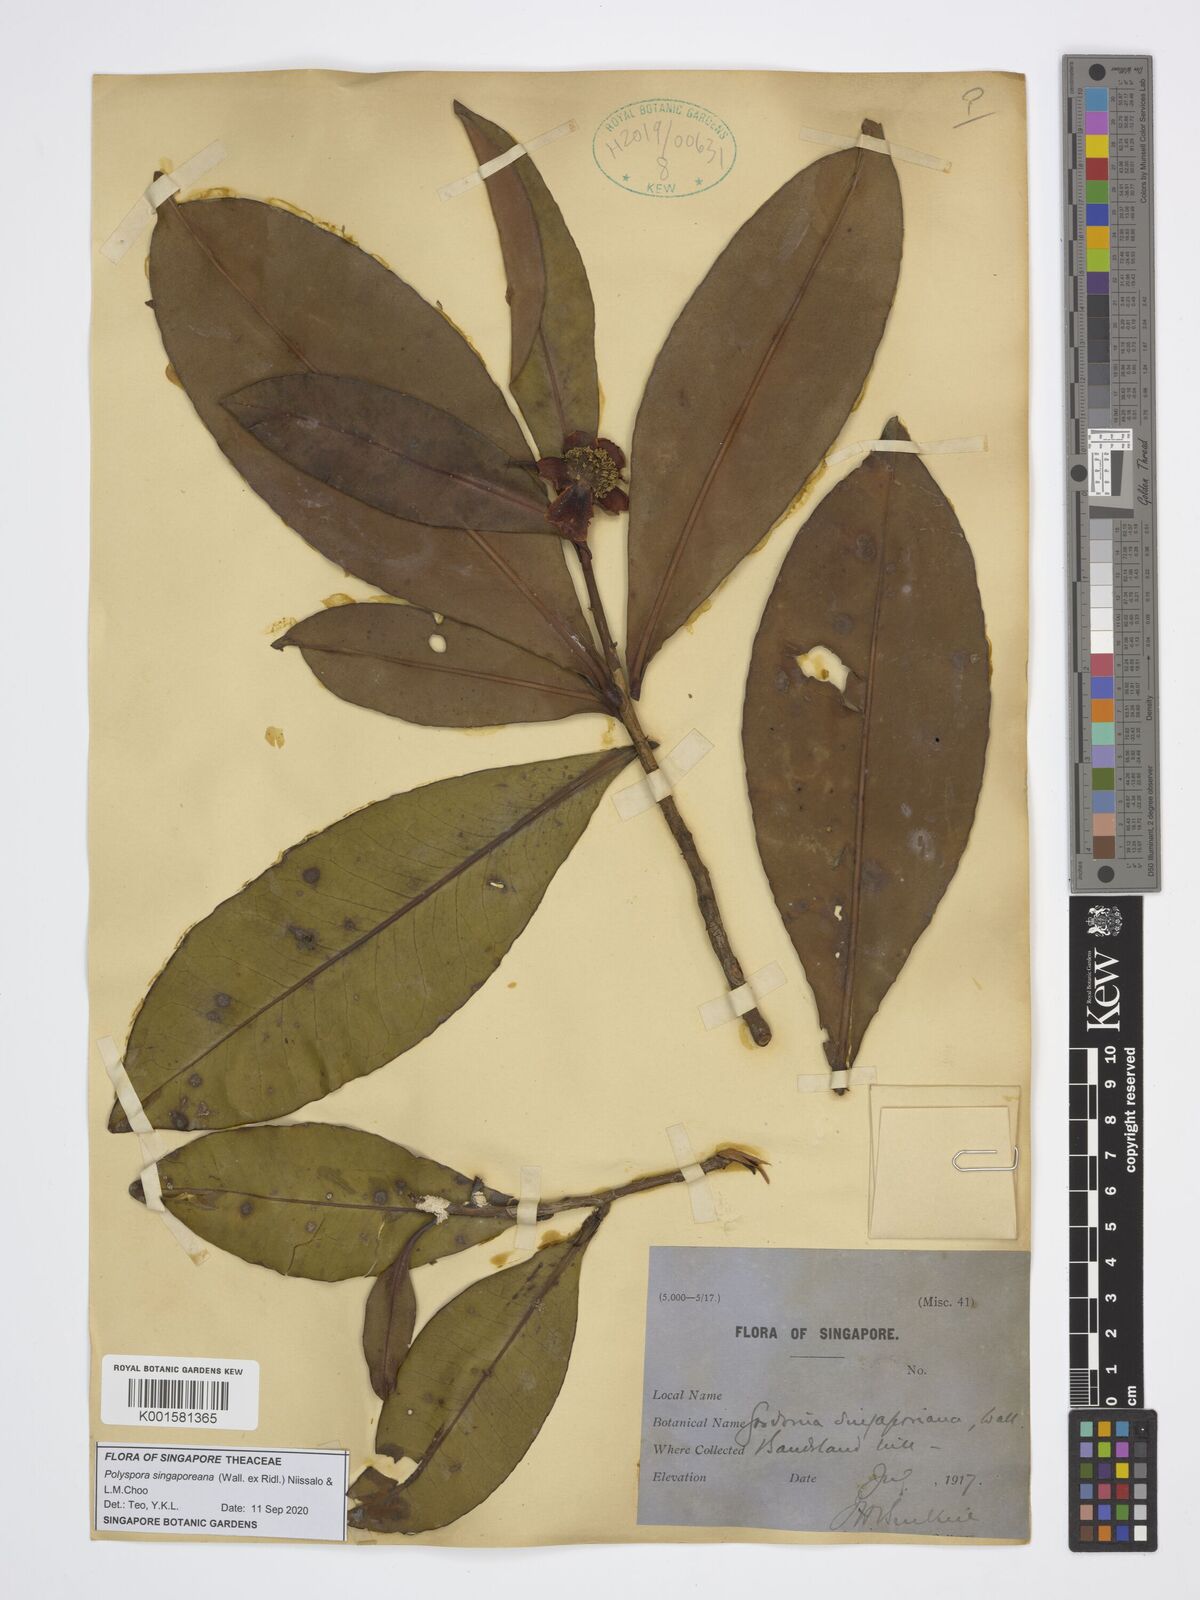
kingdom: Plantae
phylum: Tracheophyta
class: Magnoliopsida
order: Ericales
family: Theaceae
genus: Polyspora
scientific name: Polyspora
